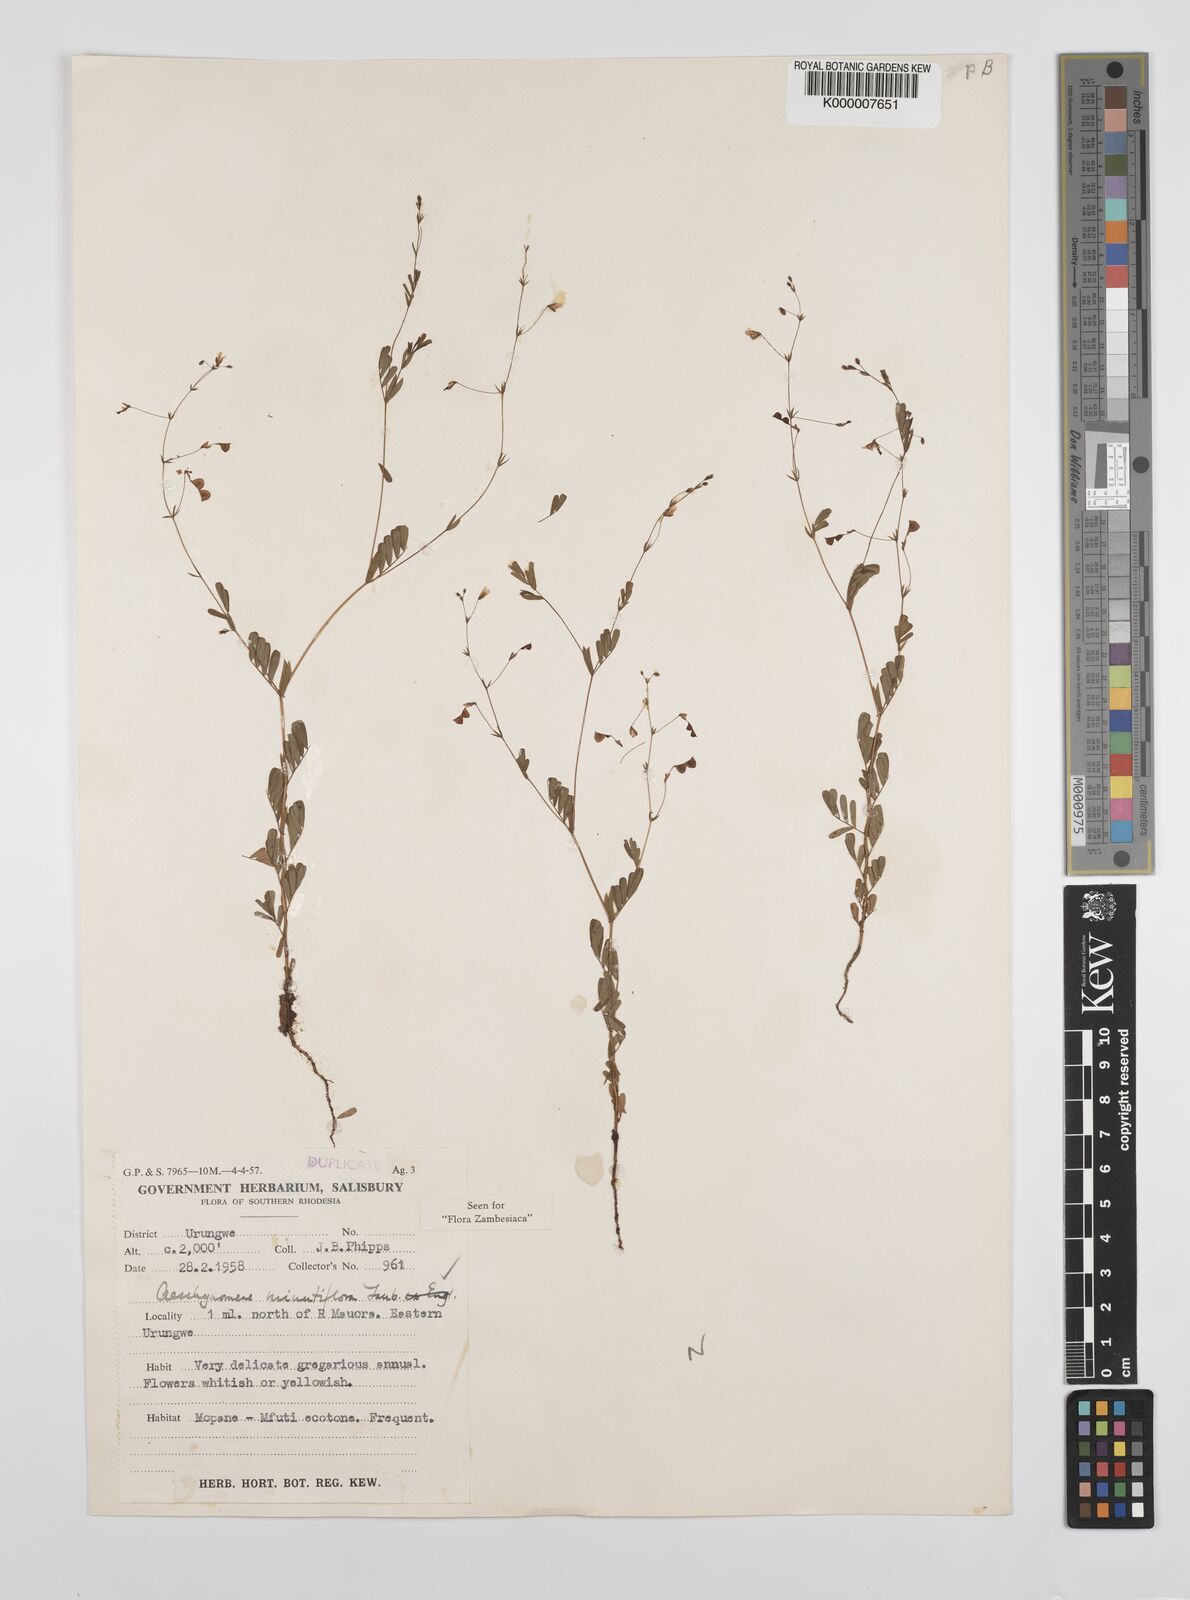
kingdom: Plantae
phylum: Tracheophyta
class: Magnoliopsida
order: Fabales
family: Fabaceae
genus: Aeschynomene
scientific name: Aeschynomene minutiflora
